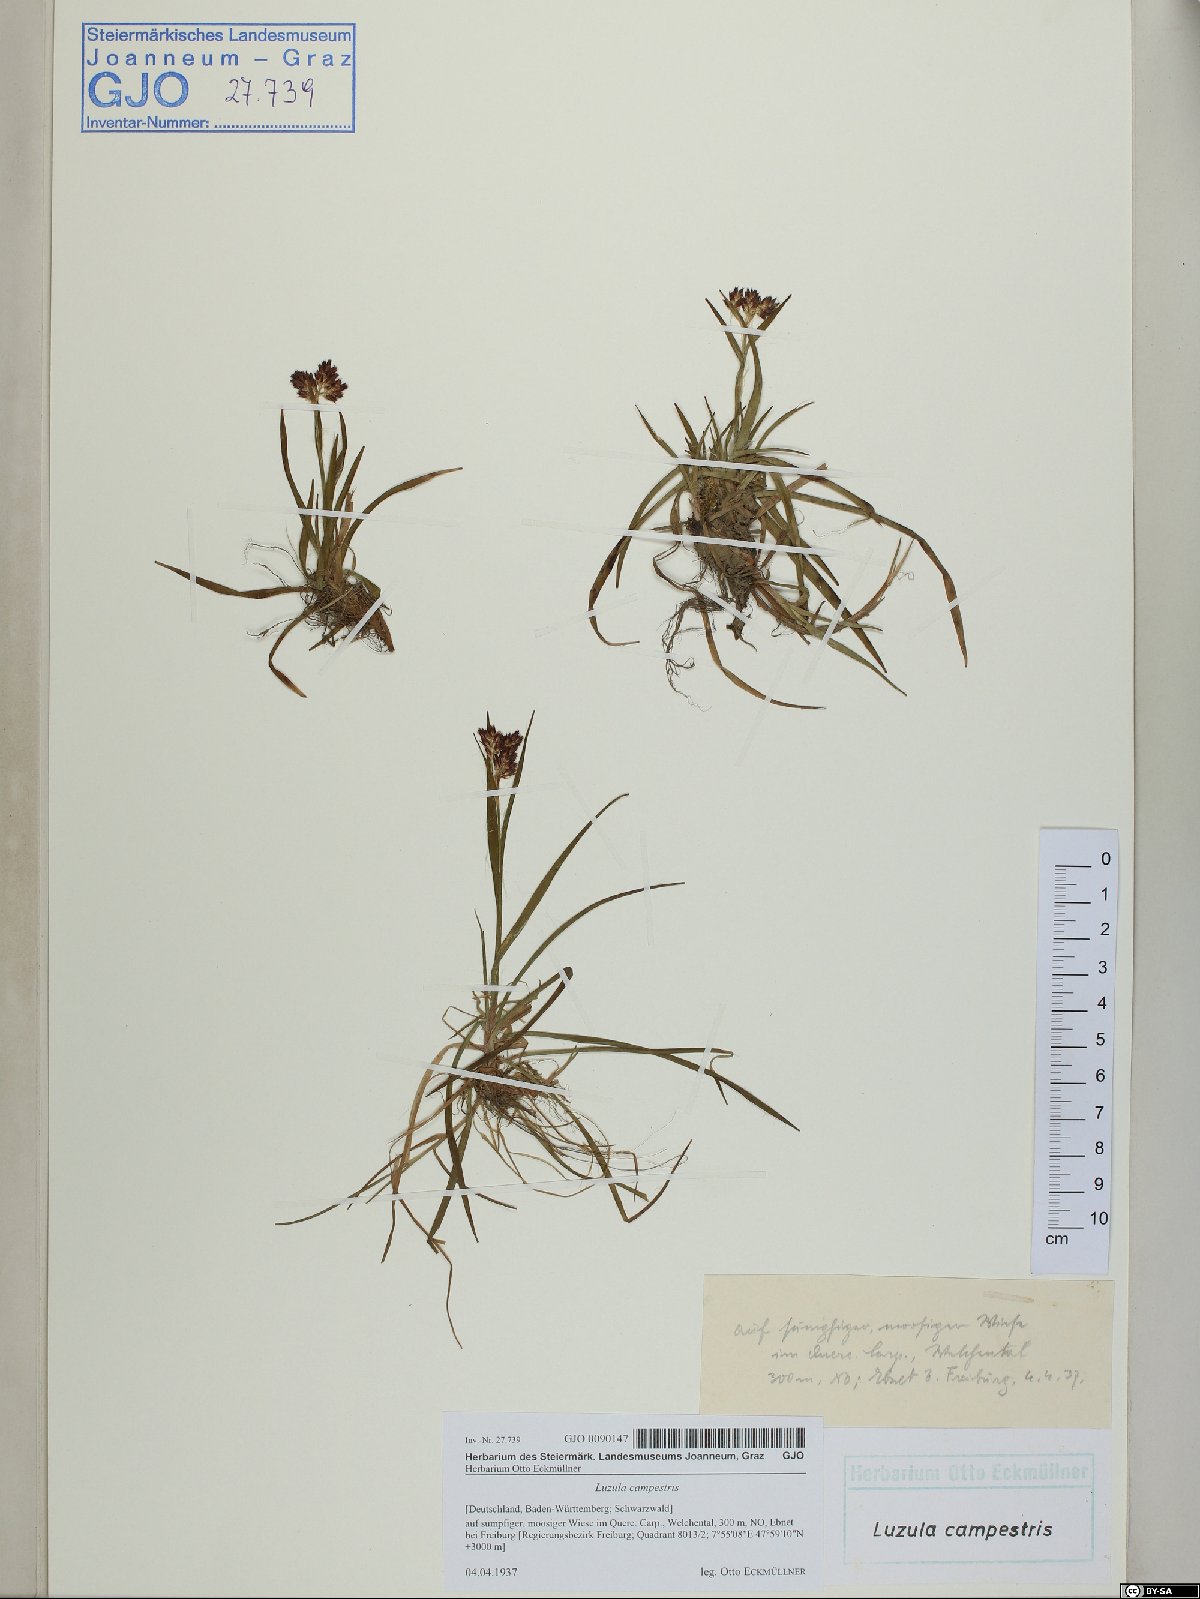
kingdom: Plantae
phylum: Tracheophyta
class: Liliopsida
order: Poales
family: Juncaceae
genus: Luzula
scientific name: Luzula campestris
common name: Field wood-rush
